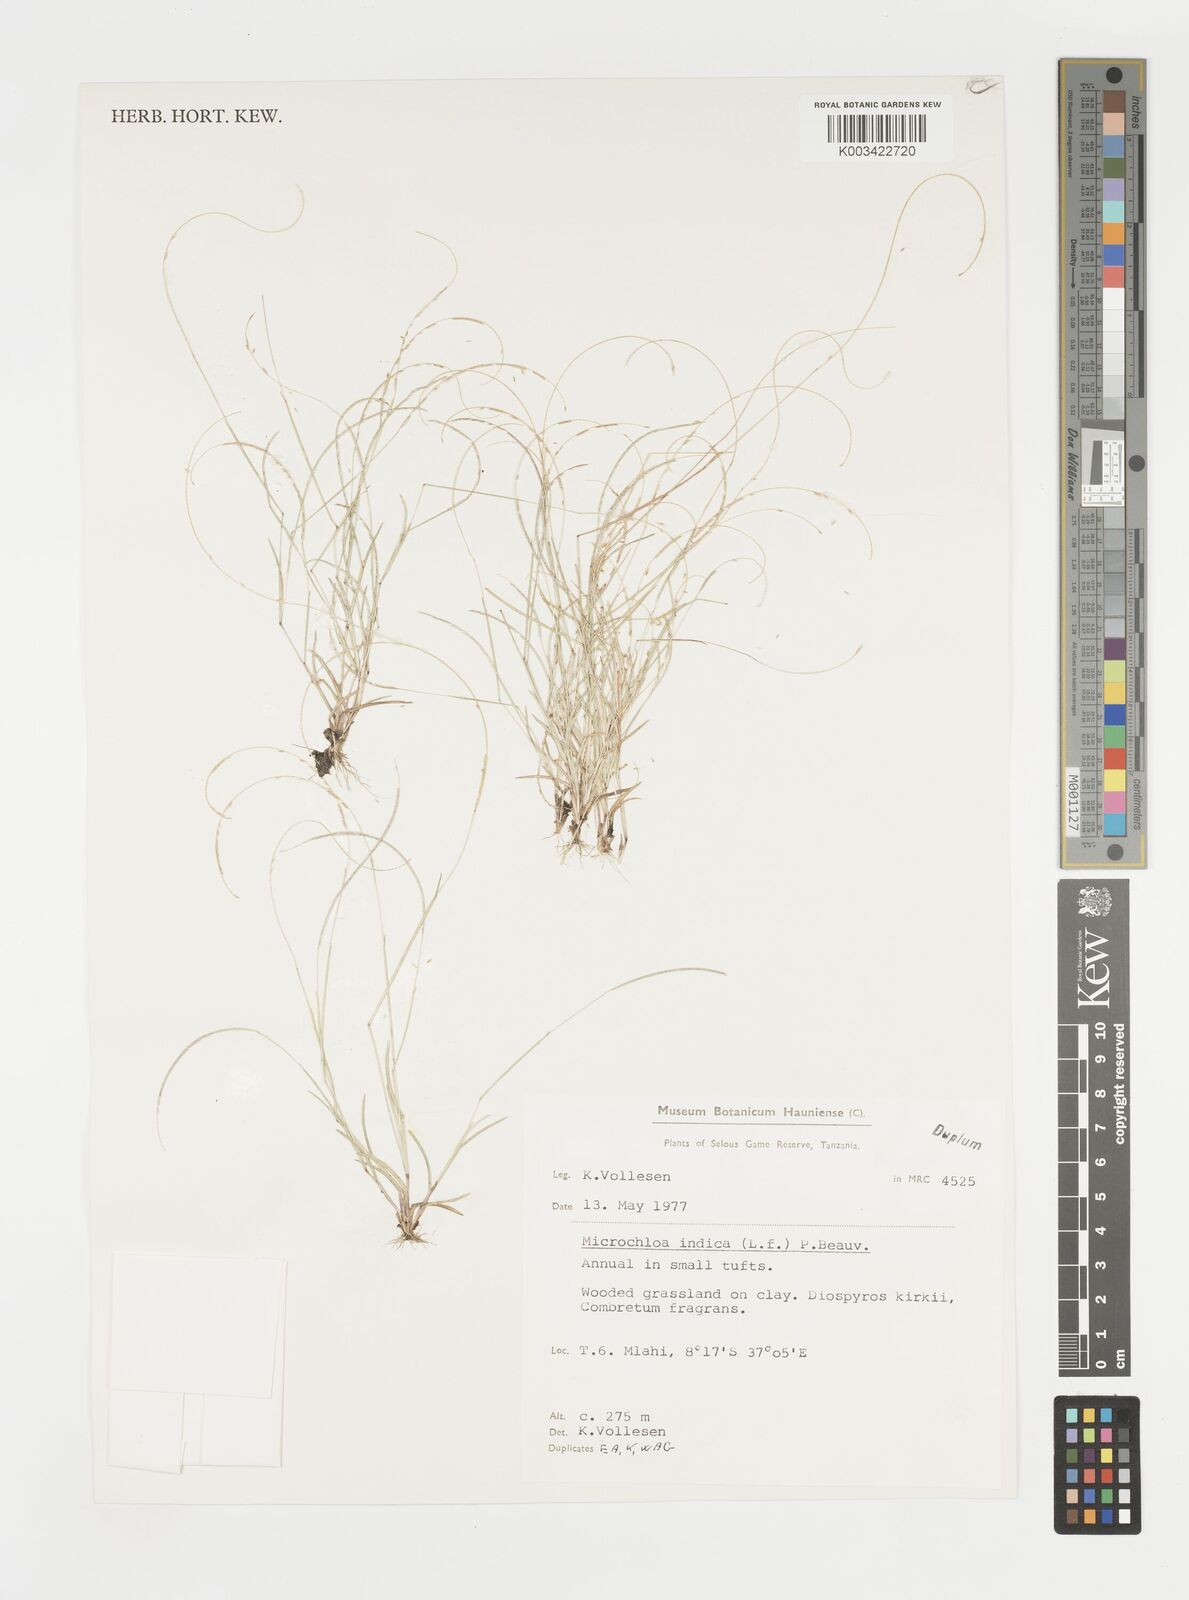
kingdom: Plantae
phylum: Tracheophyta
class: Liliopsida
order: Poales
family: Poaceae
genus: Microchloa
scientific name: Microchloa indica
